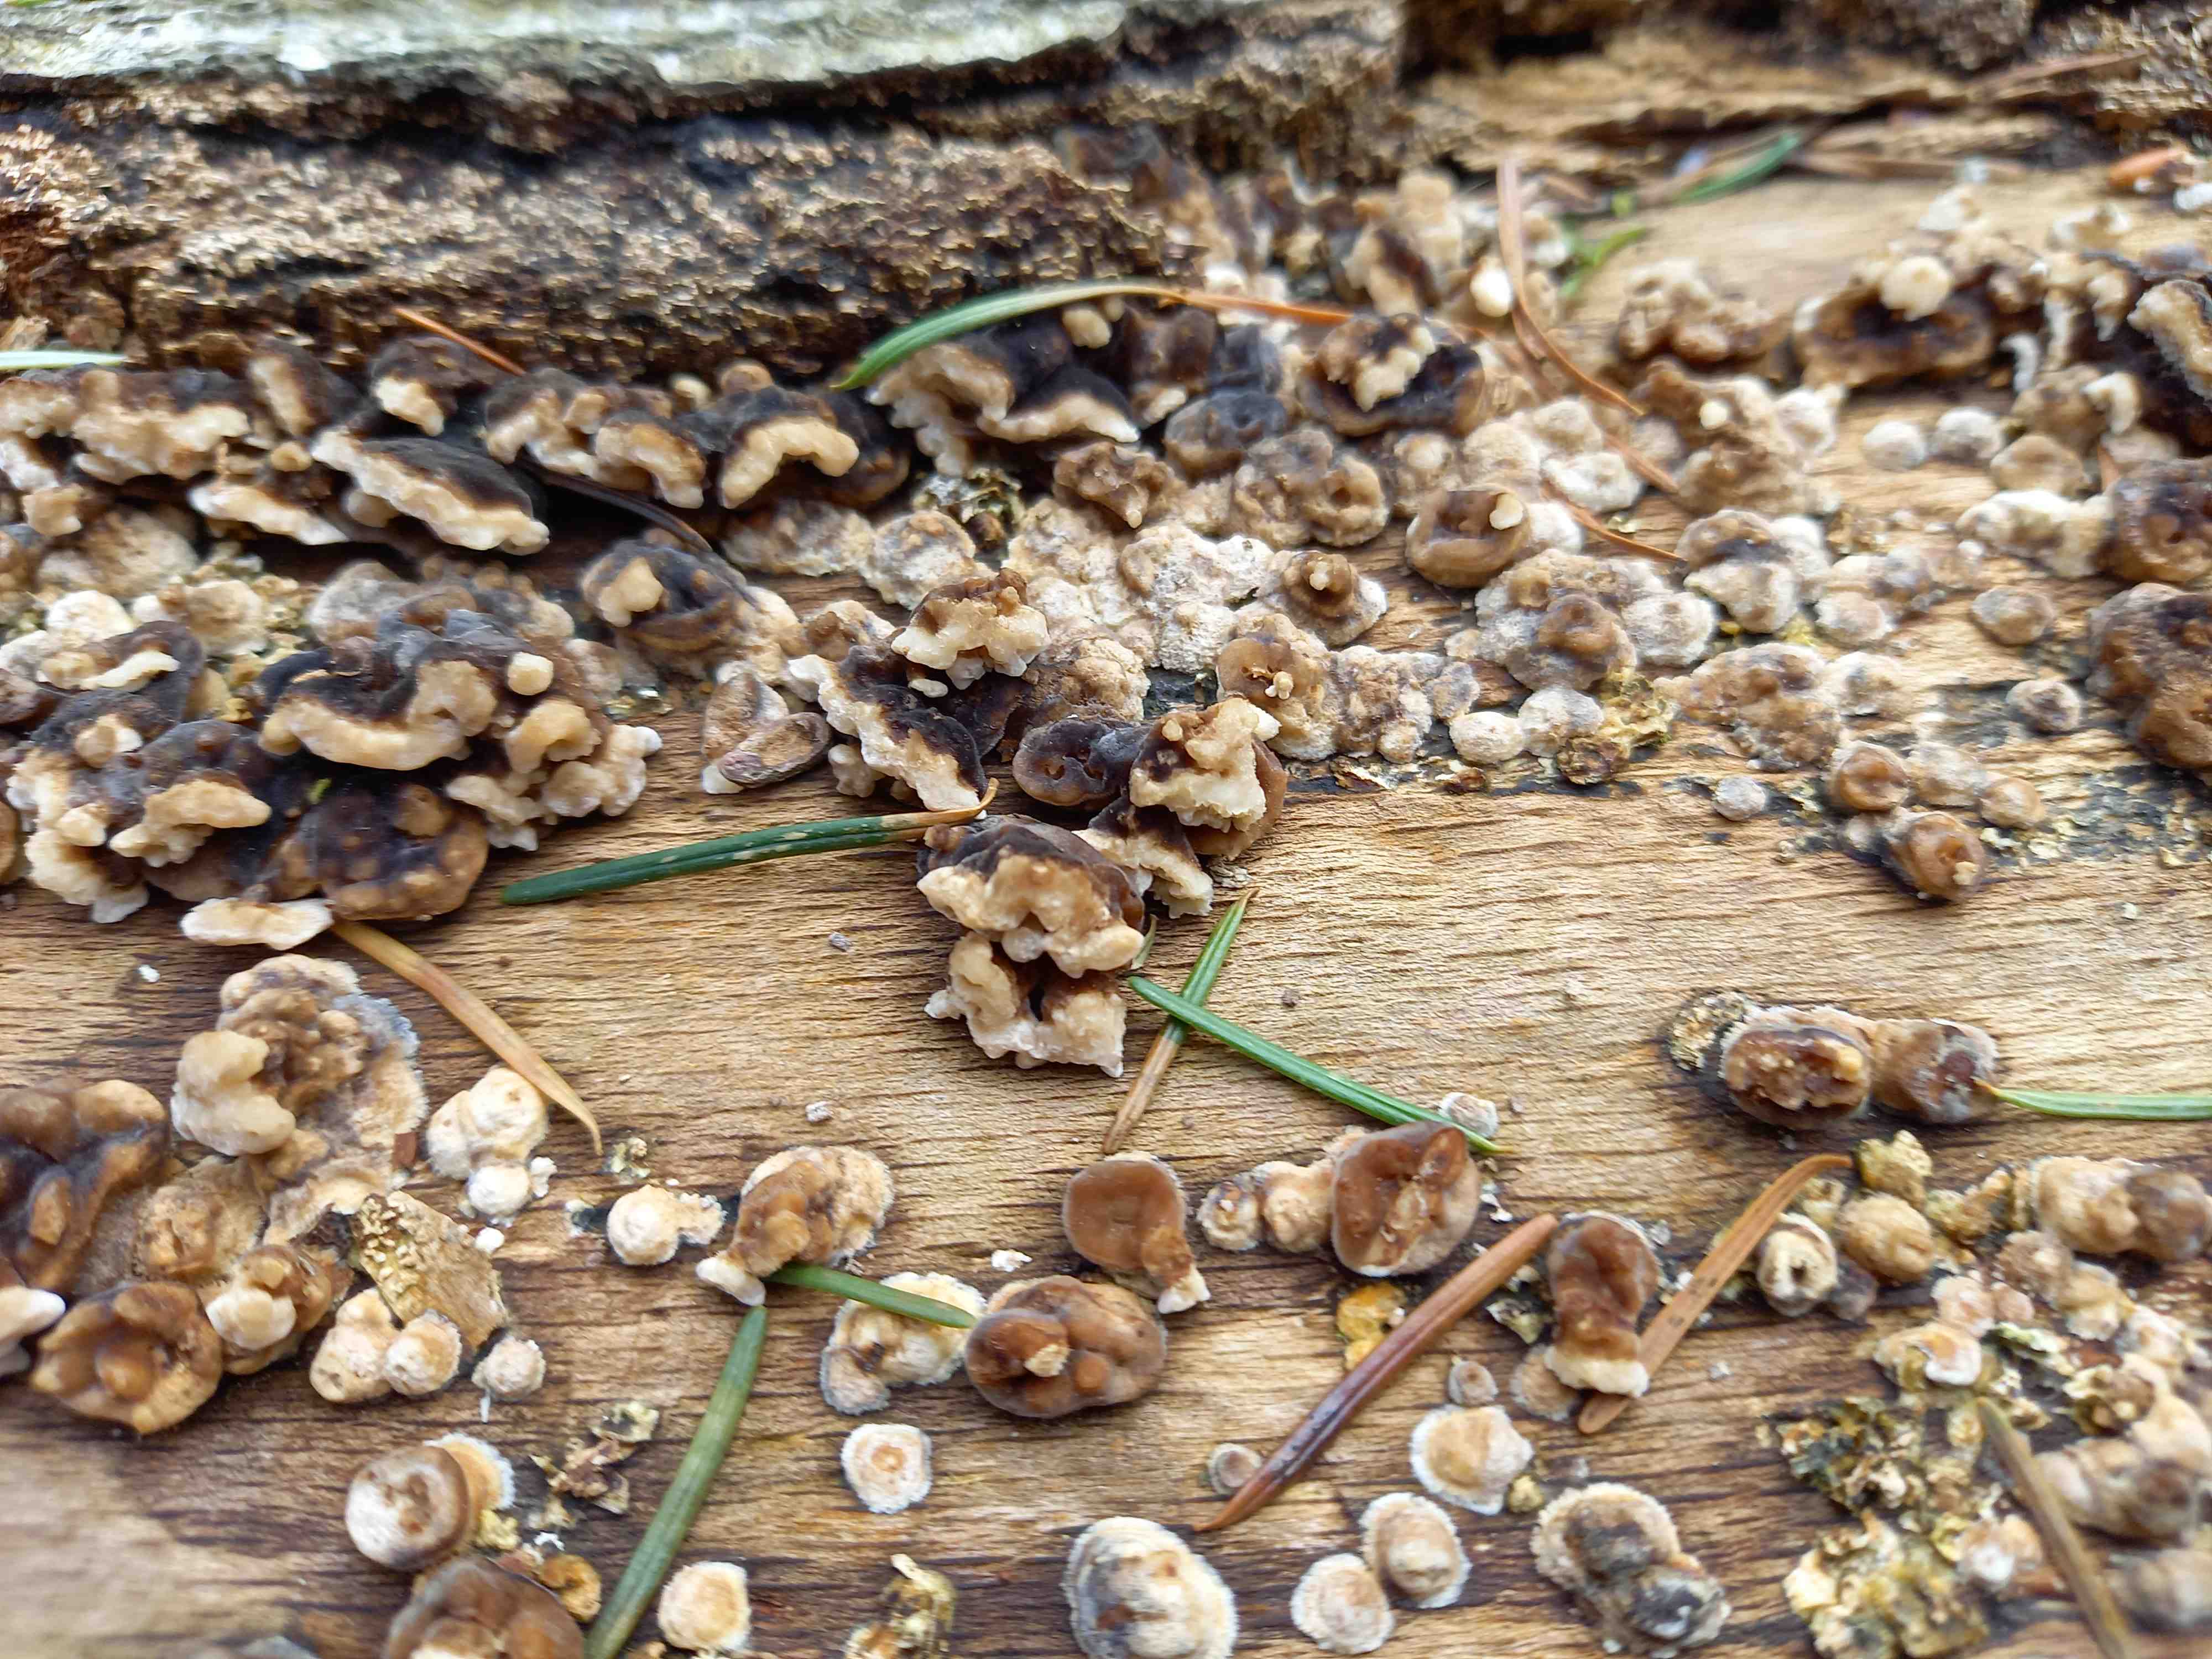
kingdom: Fungi
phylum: Basidiomycota
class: Agaricomycetes
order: Polyporales
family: Polyporaceae
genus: Trametes
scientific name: Trametes versicolor
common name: broget læderporesvamp
